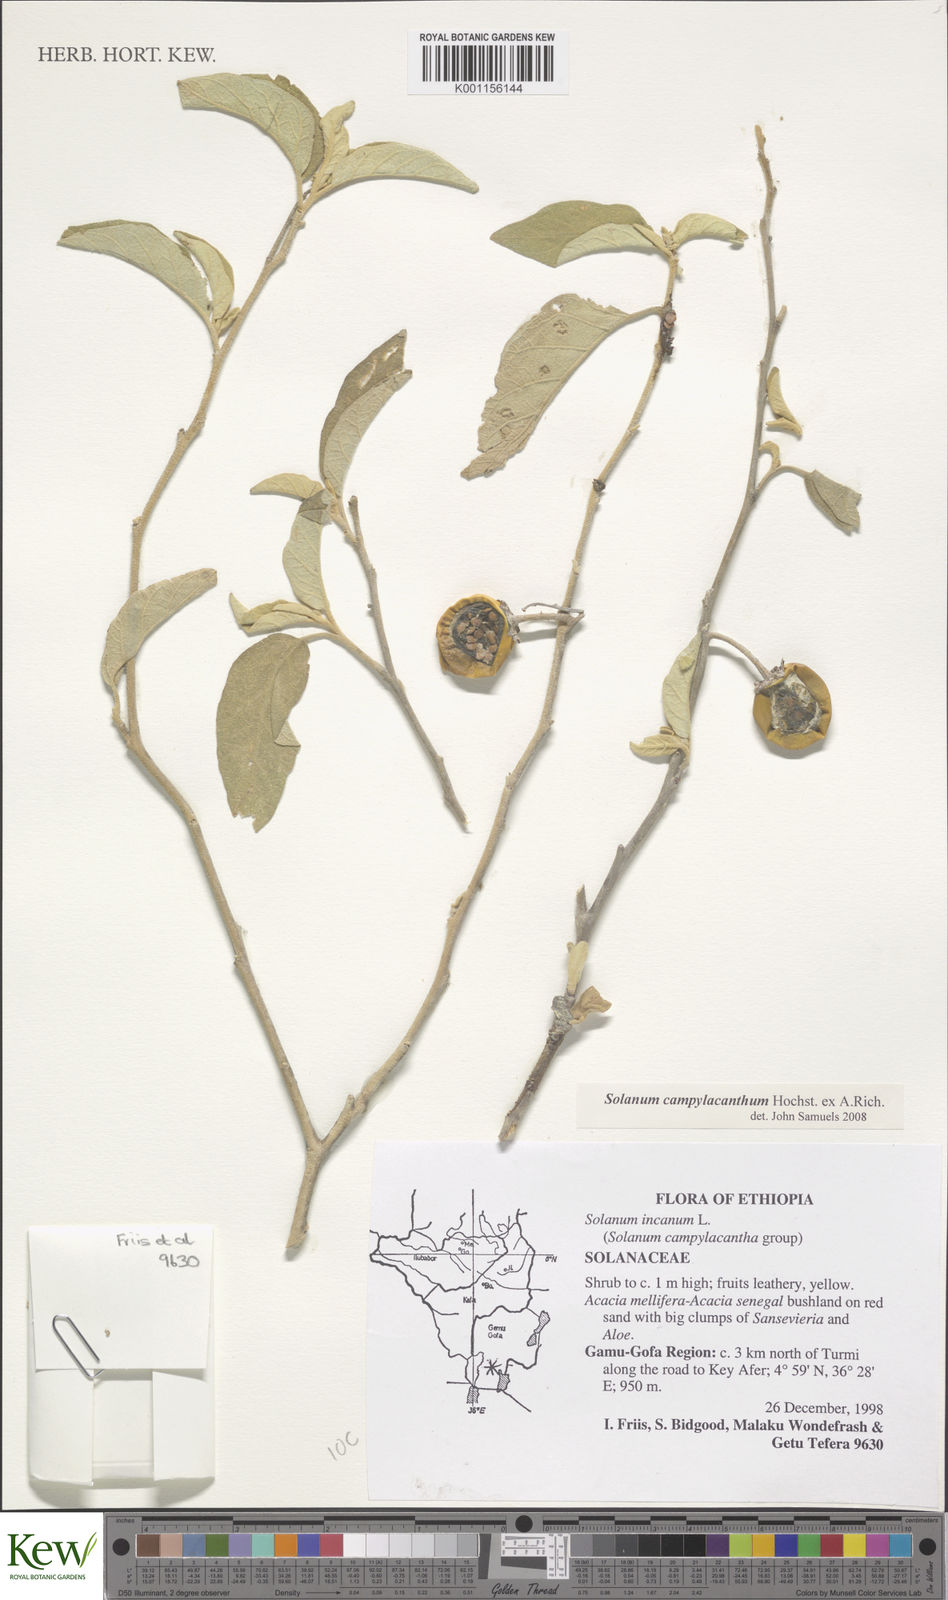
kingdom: Plantae
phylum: Tracheophyta
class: Magnoliopsida
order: Solanales
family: Solanaceae
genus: Solanum
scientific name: Solanum campylacanthum
